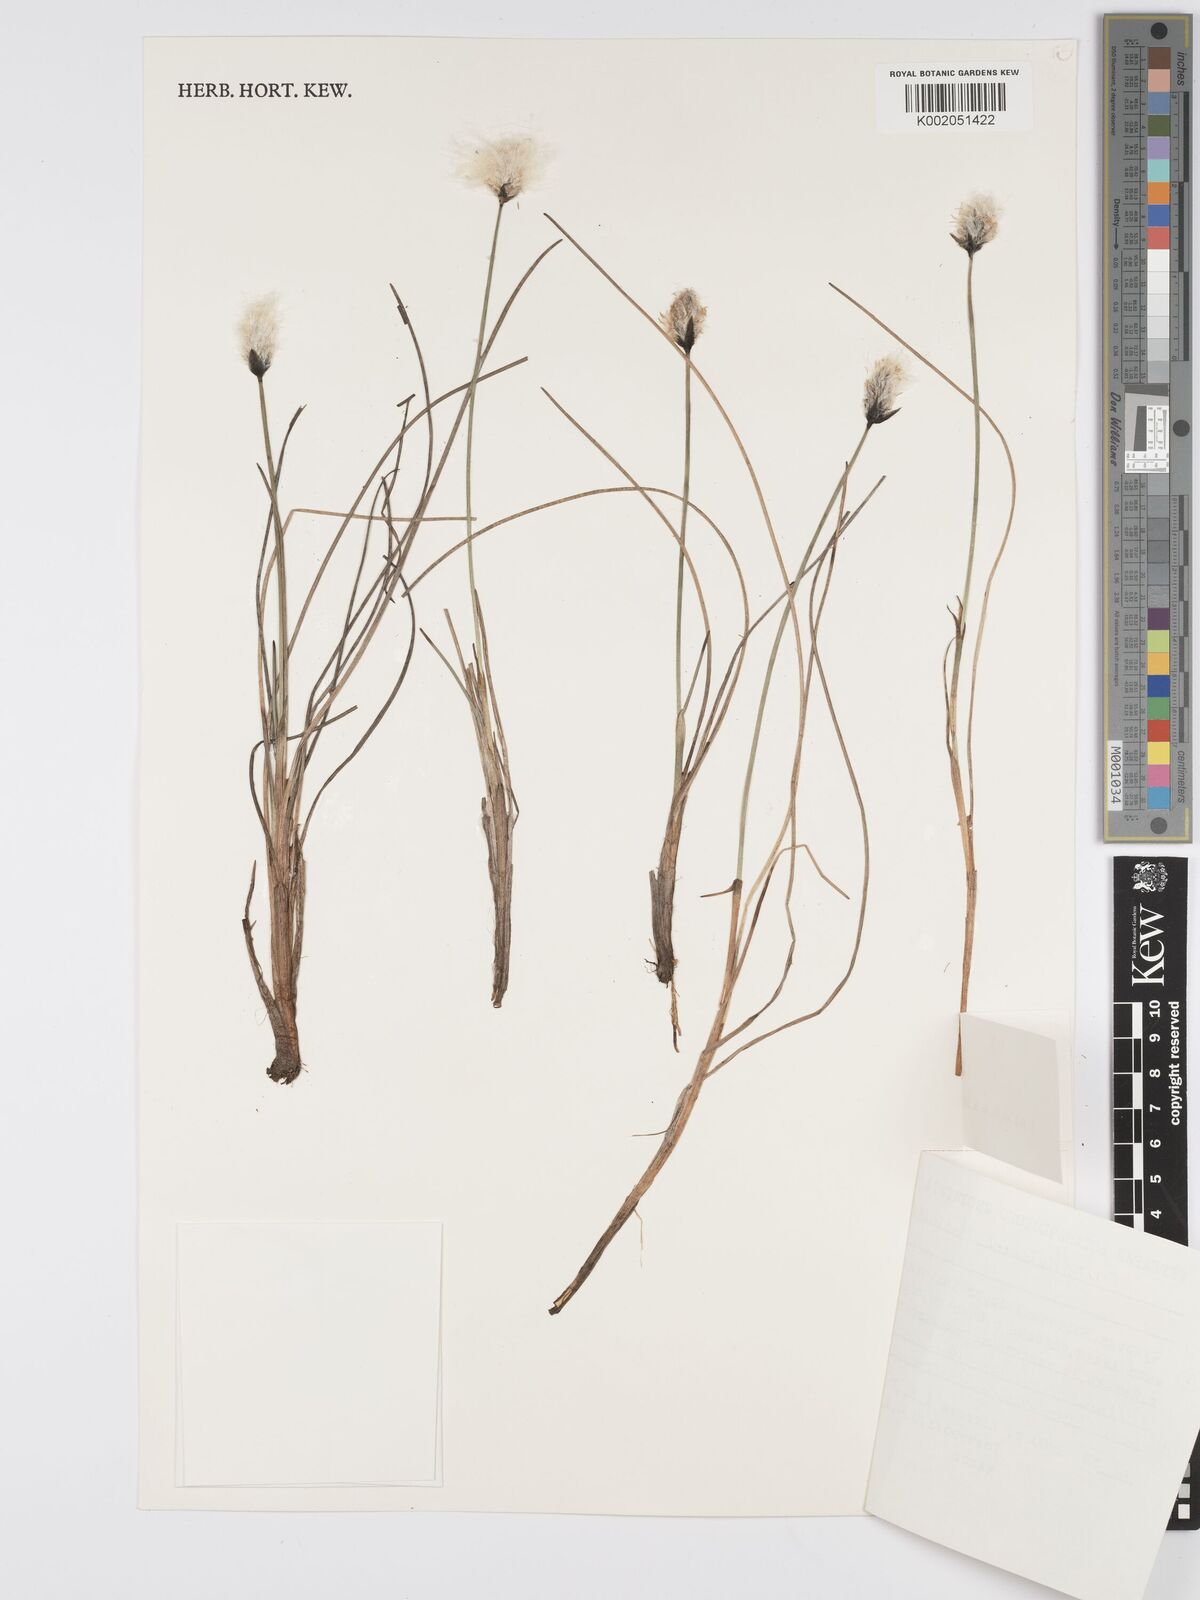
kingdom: Plantae
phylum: Tracheophyta
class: Liliopsida
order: Poales
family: Cyperaceae
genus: Eriophorum
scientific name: Eriophorum scheuchzeri
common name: Scheuchzer's cottongrass
